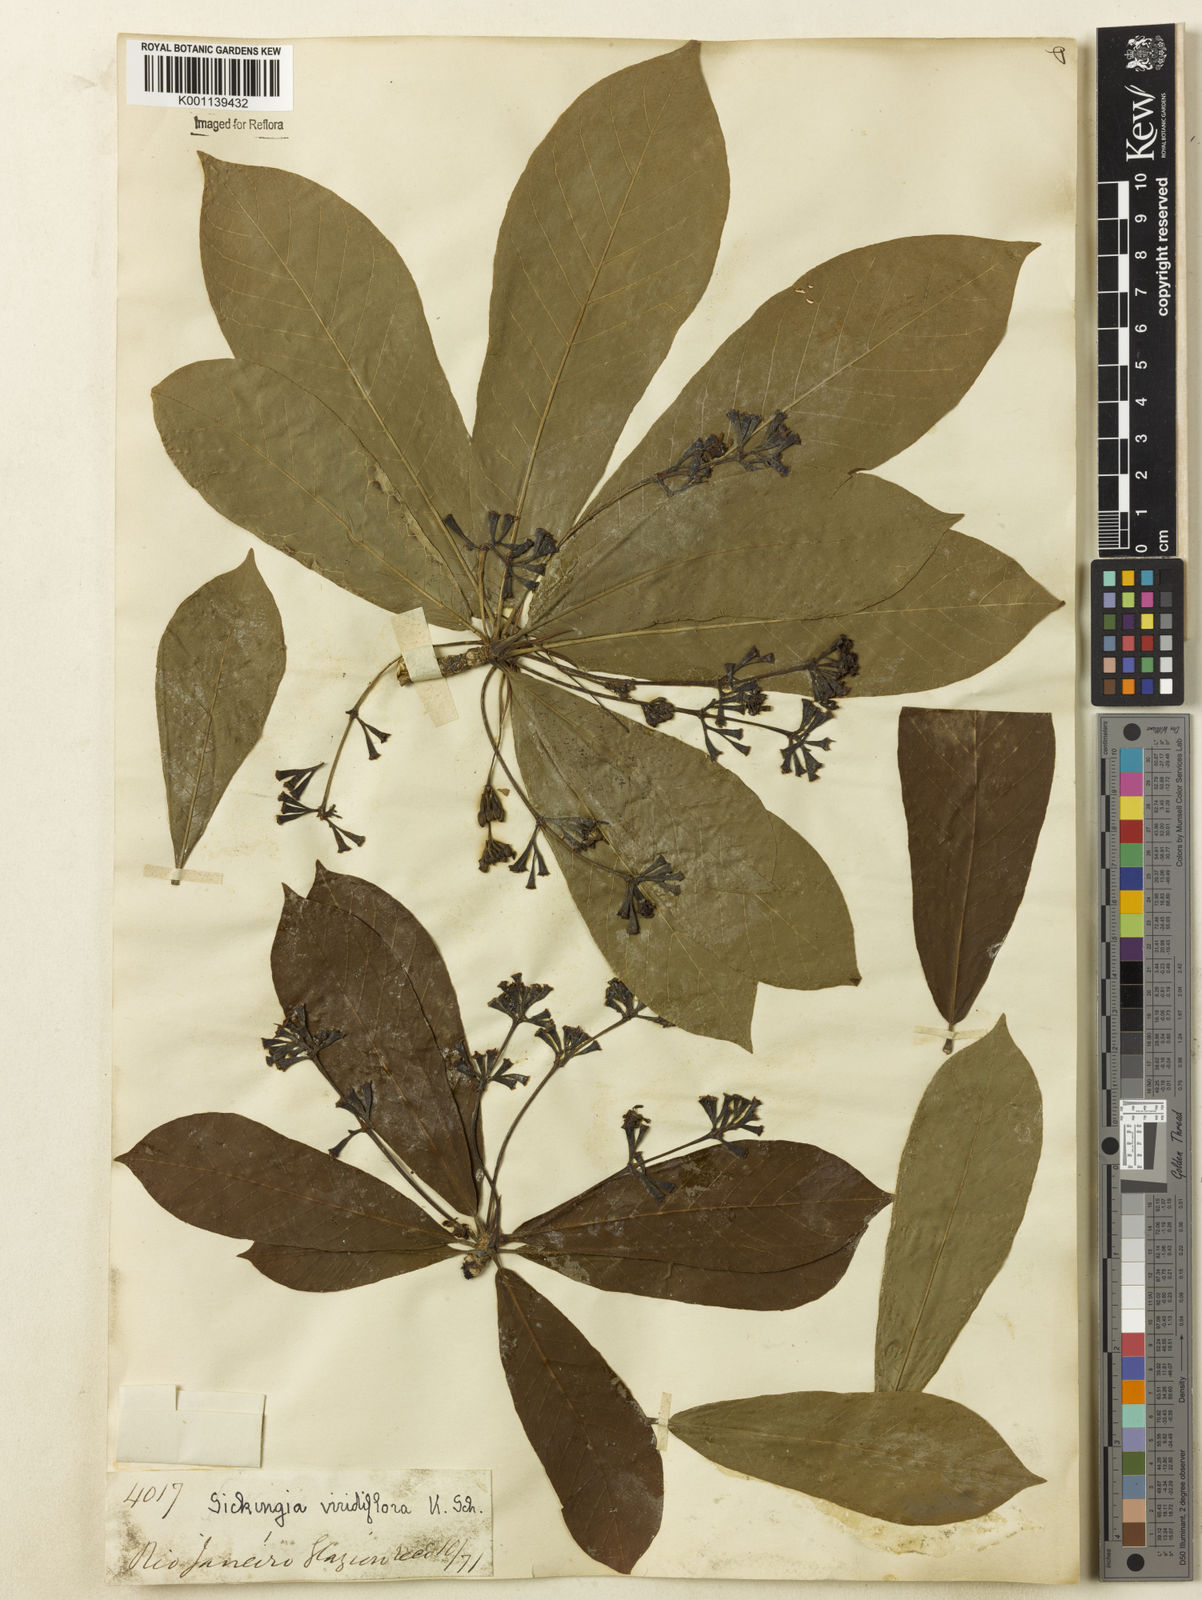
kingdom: Plantae
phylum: Tracheophyta
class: Magnoliopsida
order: Gentianales
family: Rubiaceae
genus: Simira
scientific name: Simira
